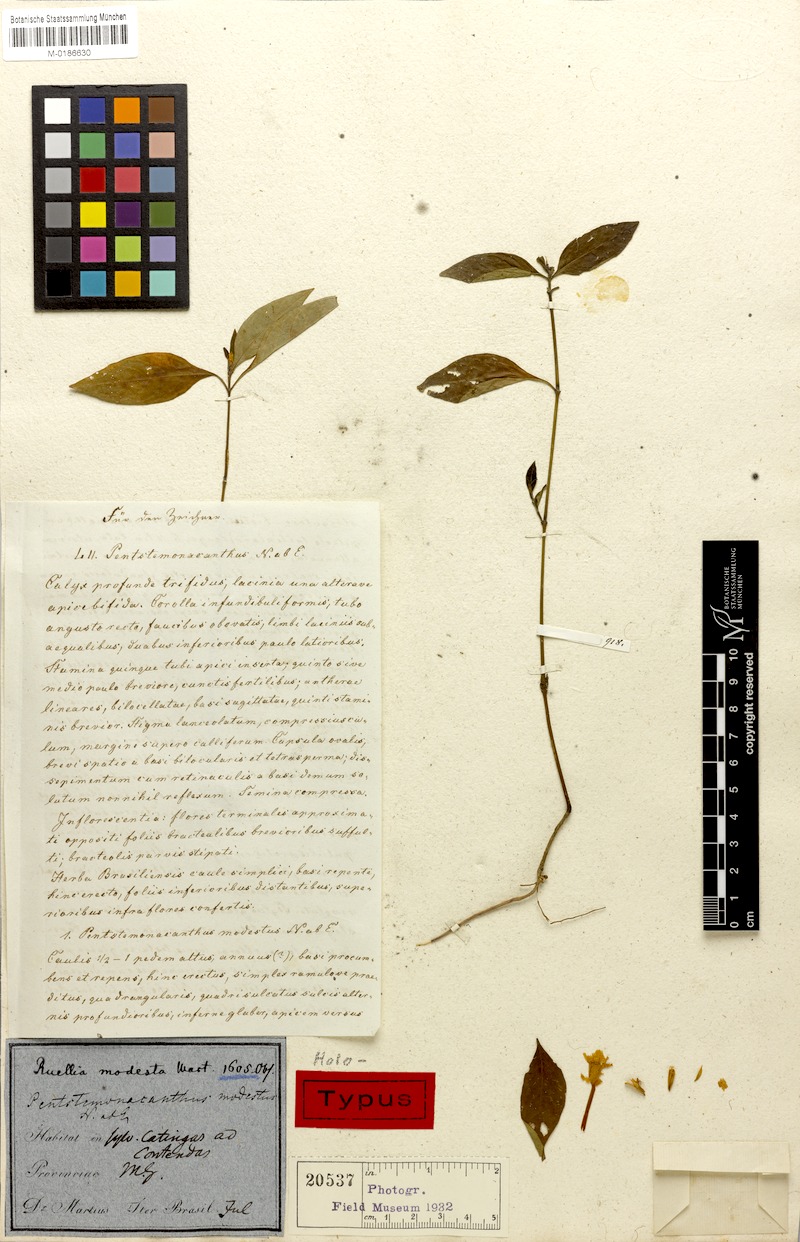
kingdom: Plantae
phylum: Tracheophyta
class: Magnoliopsida
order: Lamiales
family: Acanthaceae
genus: Ruellia
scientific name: Ruellia erythropus
